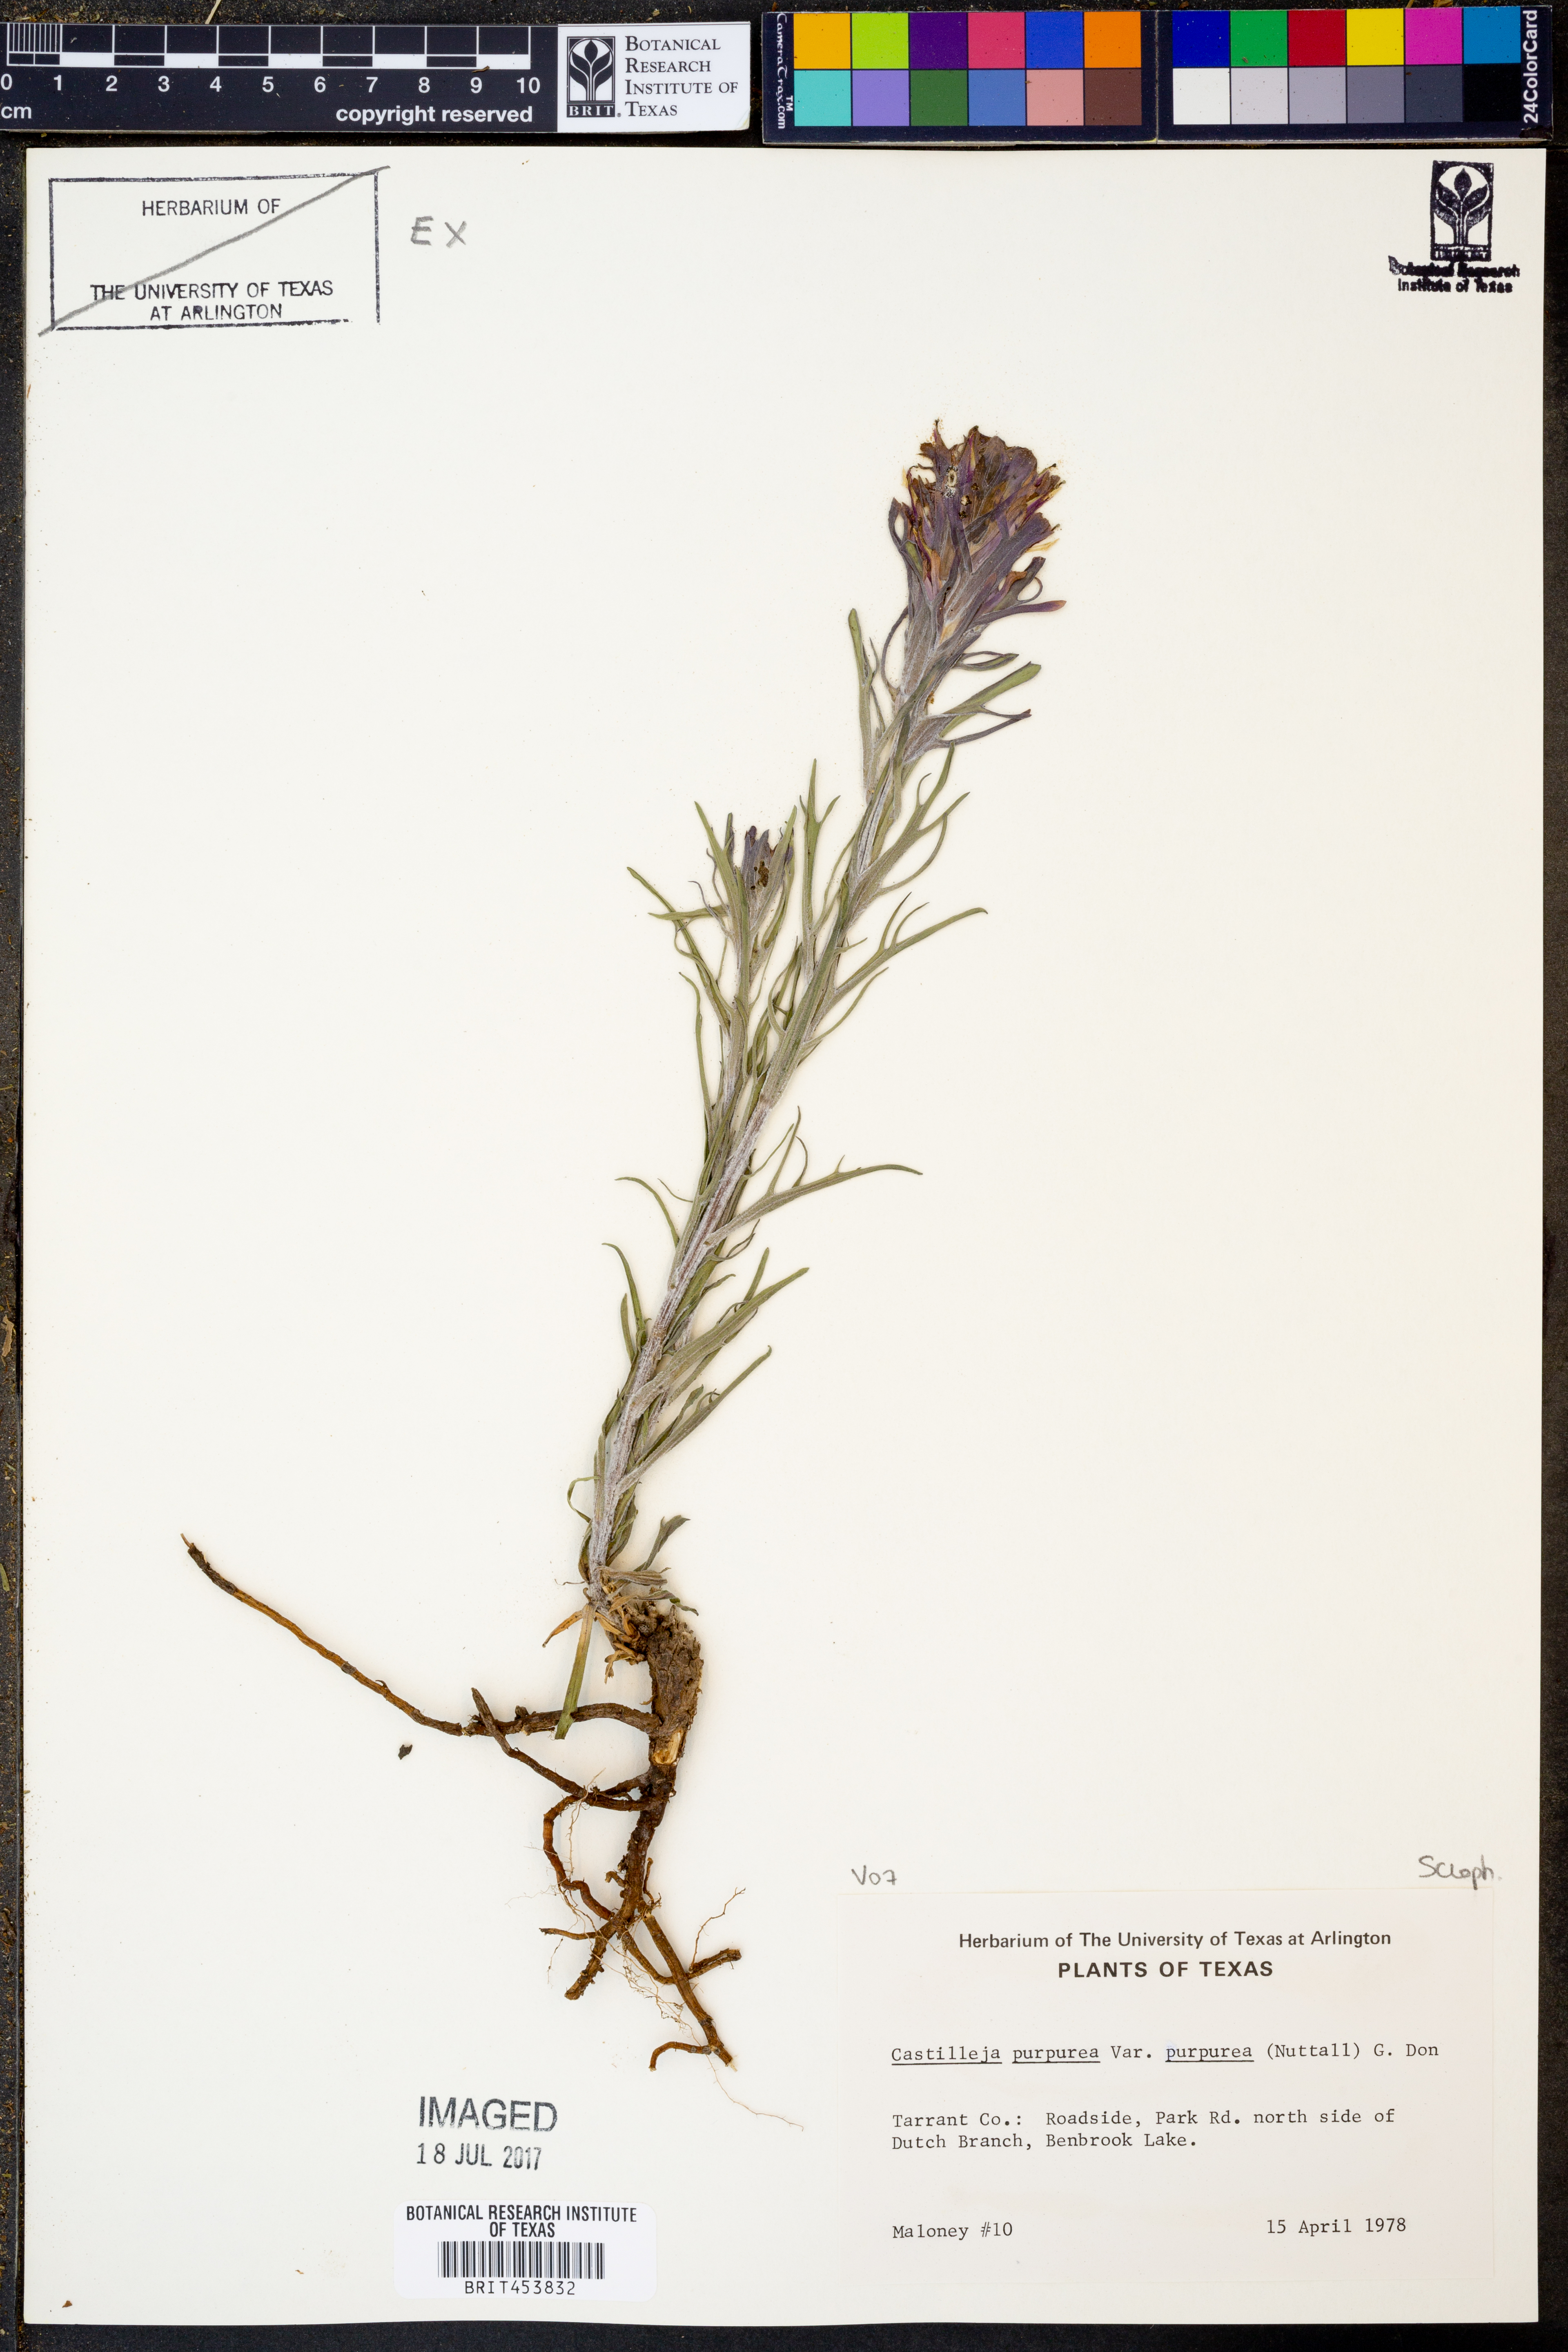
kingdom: Plantae
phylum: Tracheophyta
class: Magnoliopsida
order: Lamiales
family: Orobanchaceae
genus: Castilleja
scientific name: Castilleja purpurea
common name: Plains paintbrush
